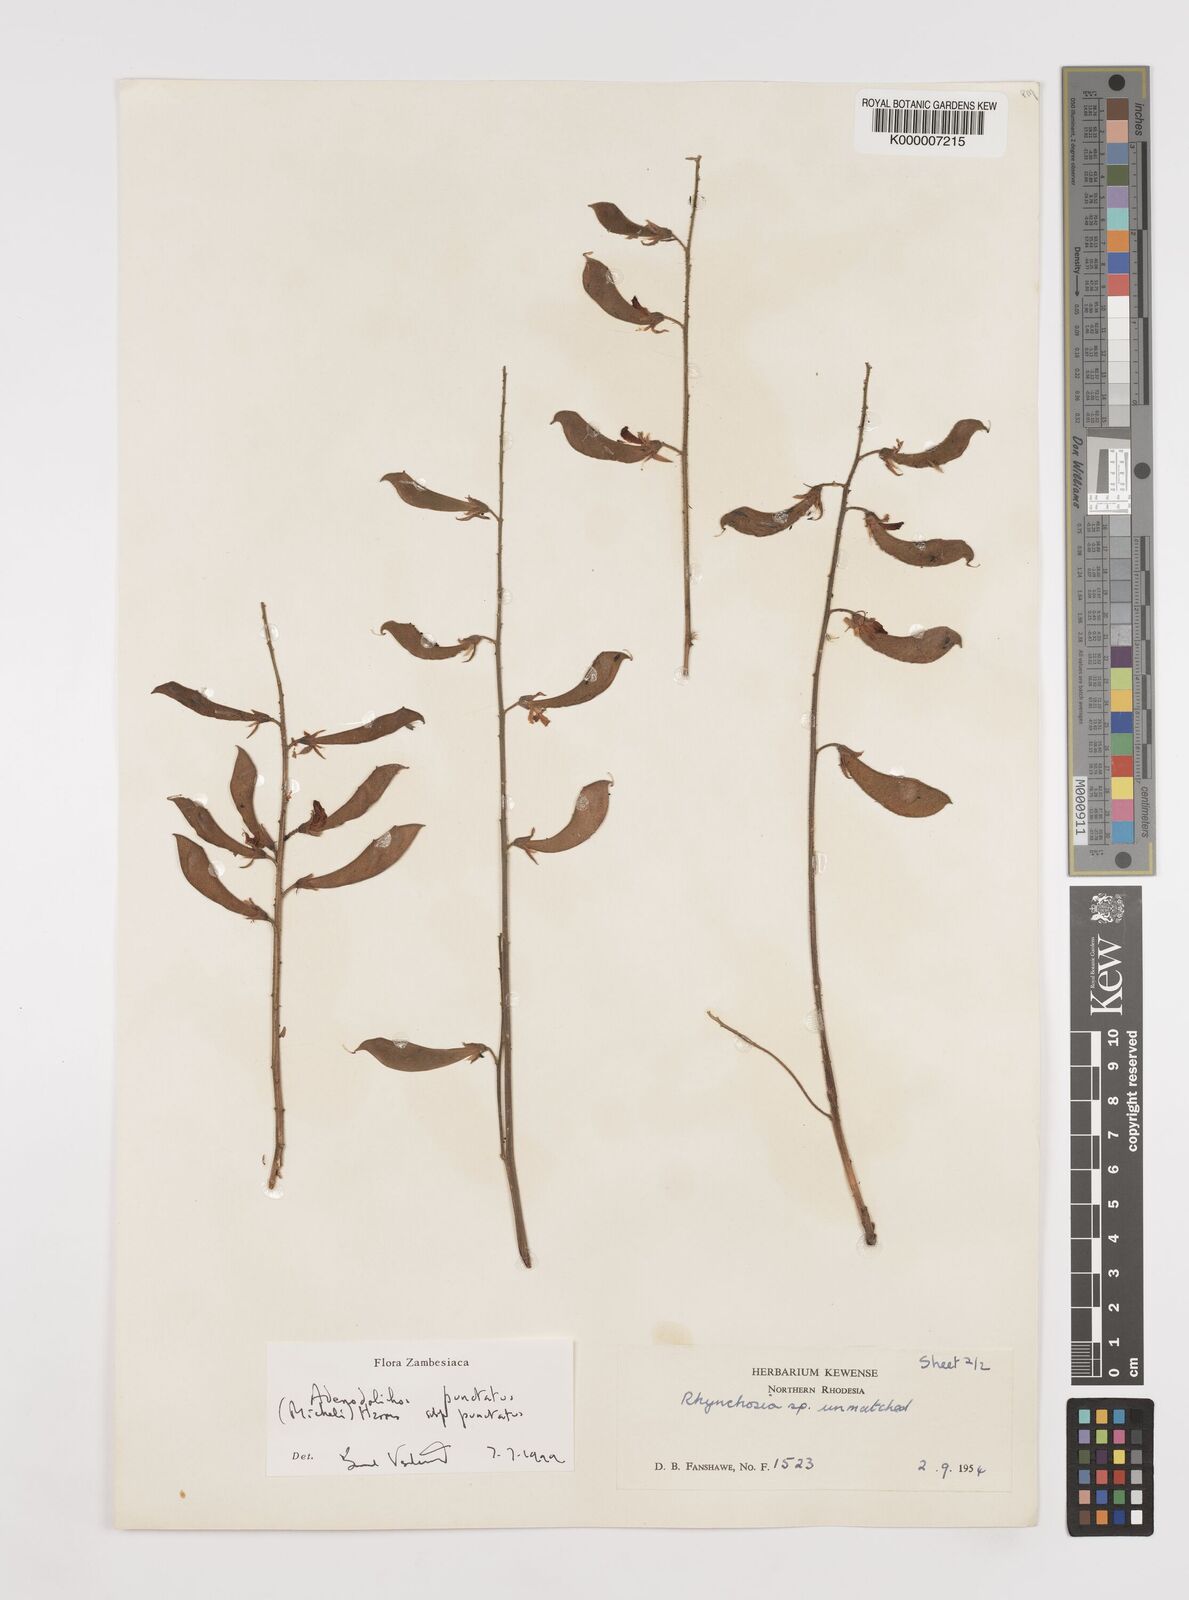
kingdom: Plantae
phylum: Tracheophyta
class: Magnoliopsida
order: Fabales
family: Fabaceae
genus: Adenodolichos
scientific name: Adenodolichos punctatus
